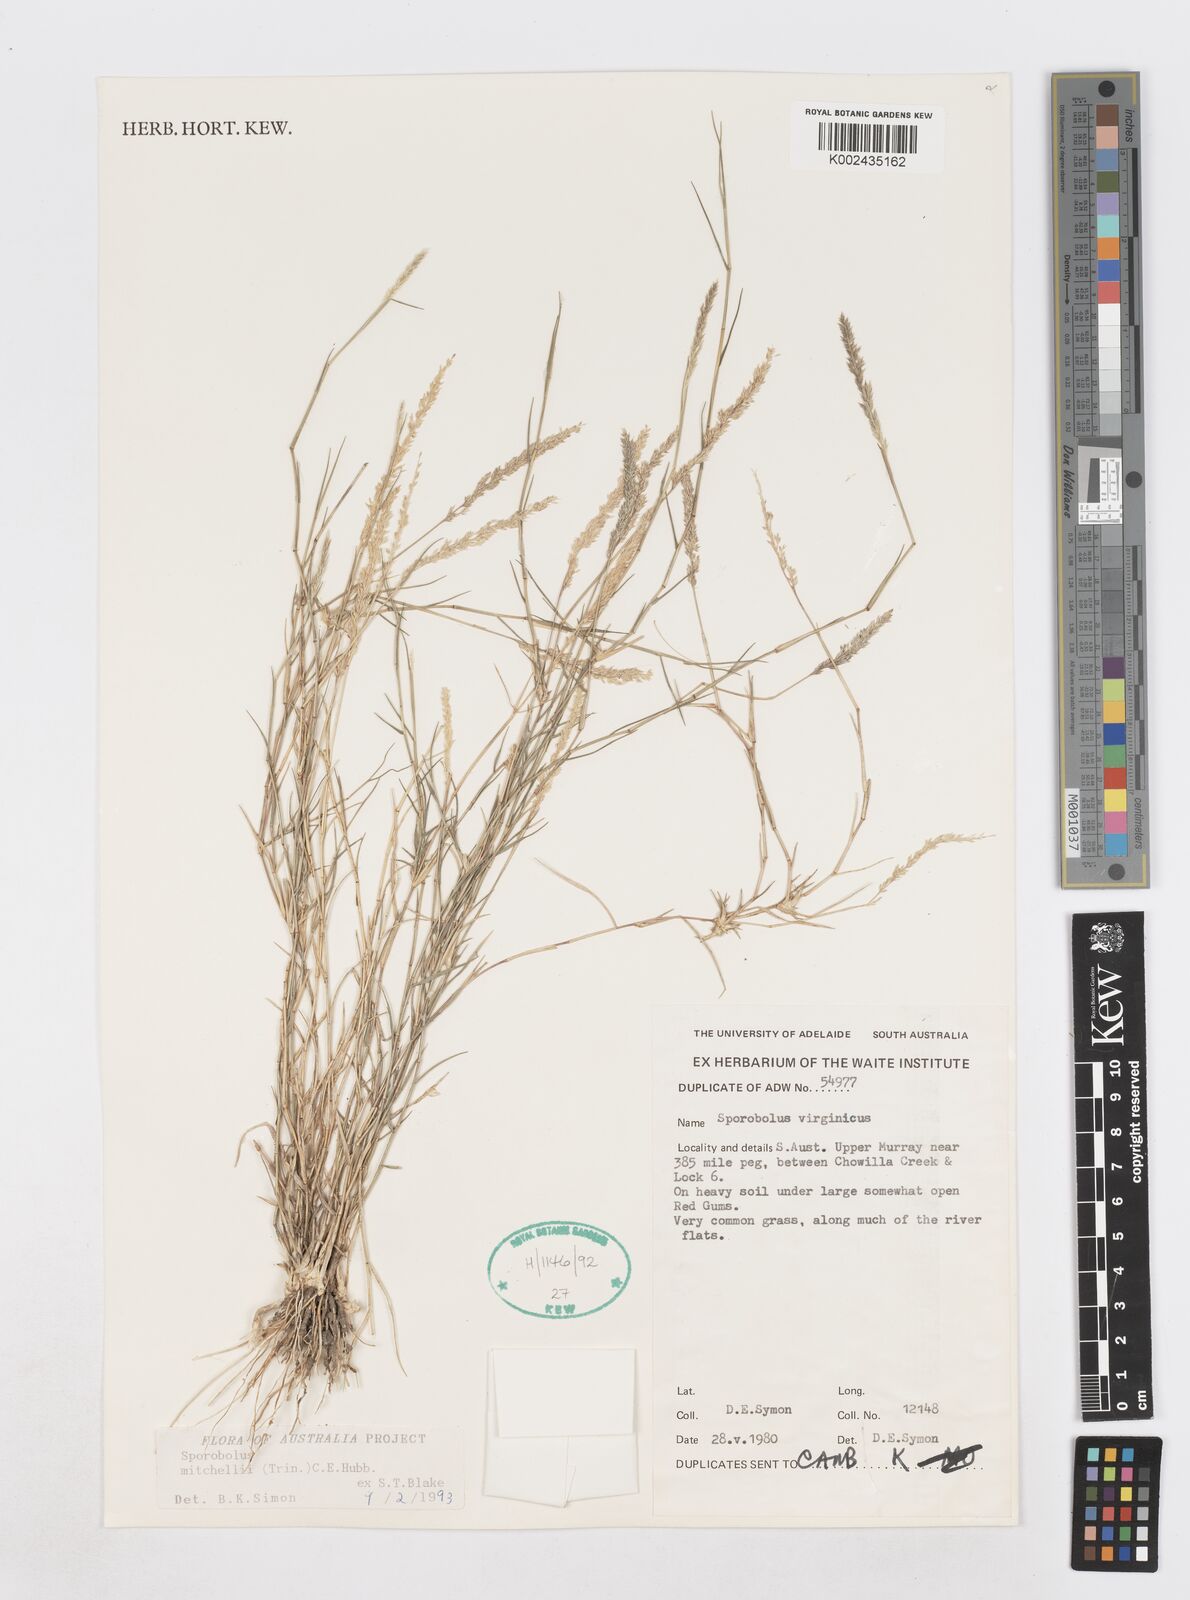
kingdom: Plantae
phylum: Tracheophyta
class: Liliopsida
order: Poales
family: Poaceae
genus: Sporobolus
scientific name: Sporobolus mitchellii
